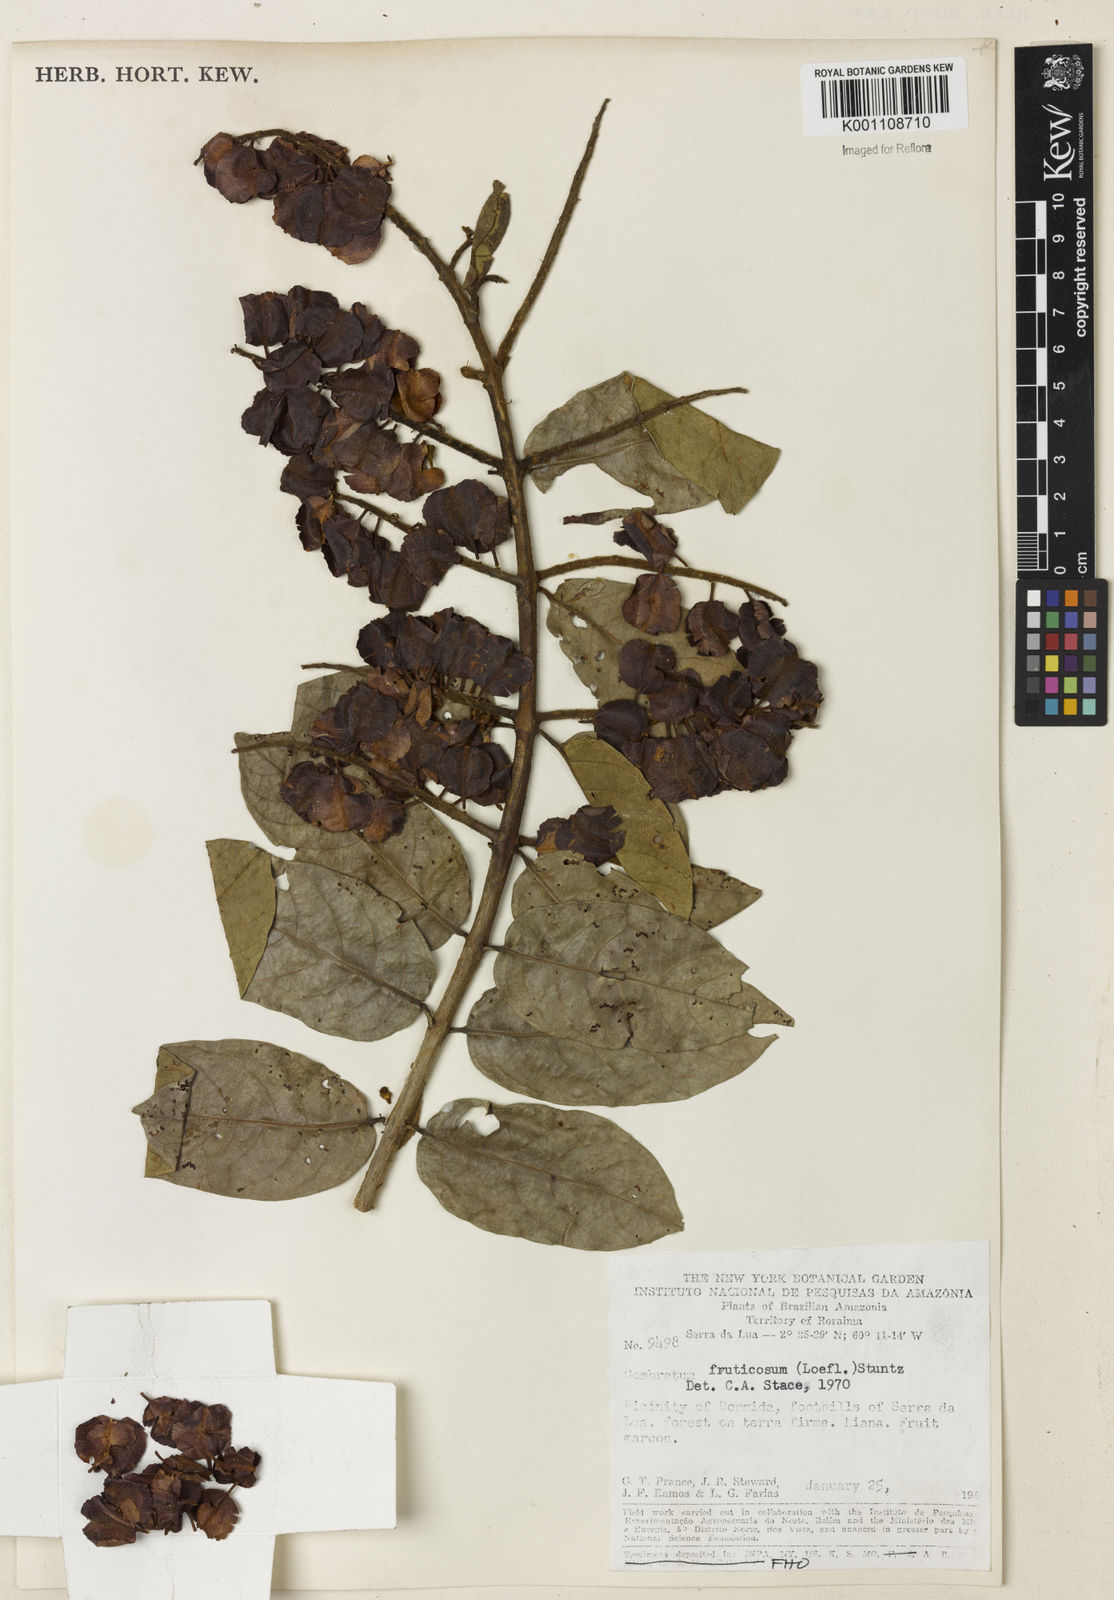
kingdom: Plantae
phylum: Tracheophyta
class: Magnoliopsida
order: Myrtales
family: Combretaceae
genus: Combretum
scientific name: Combretum fruticosum
